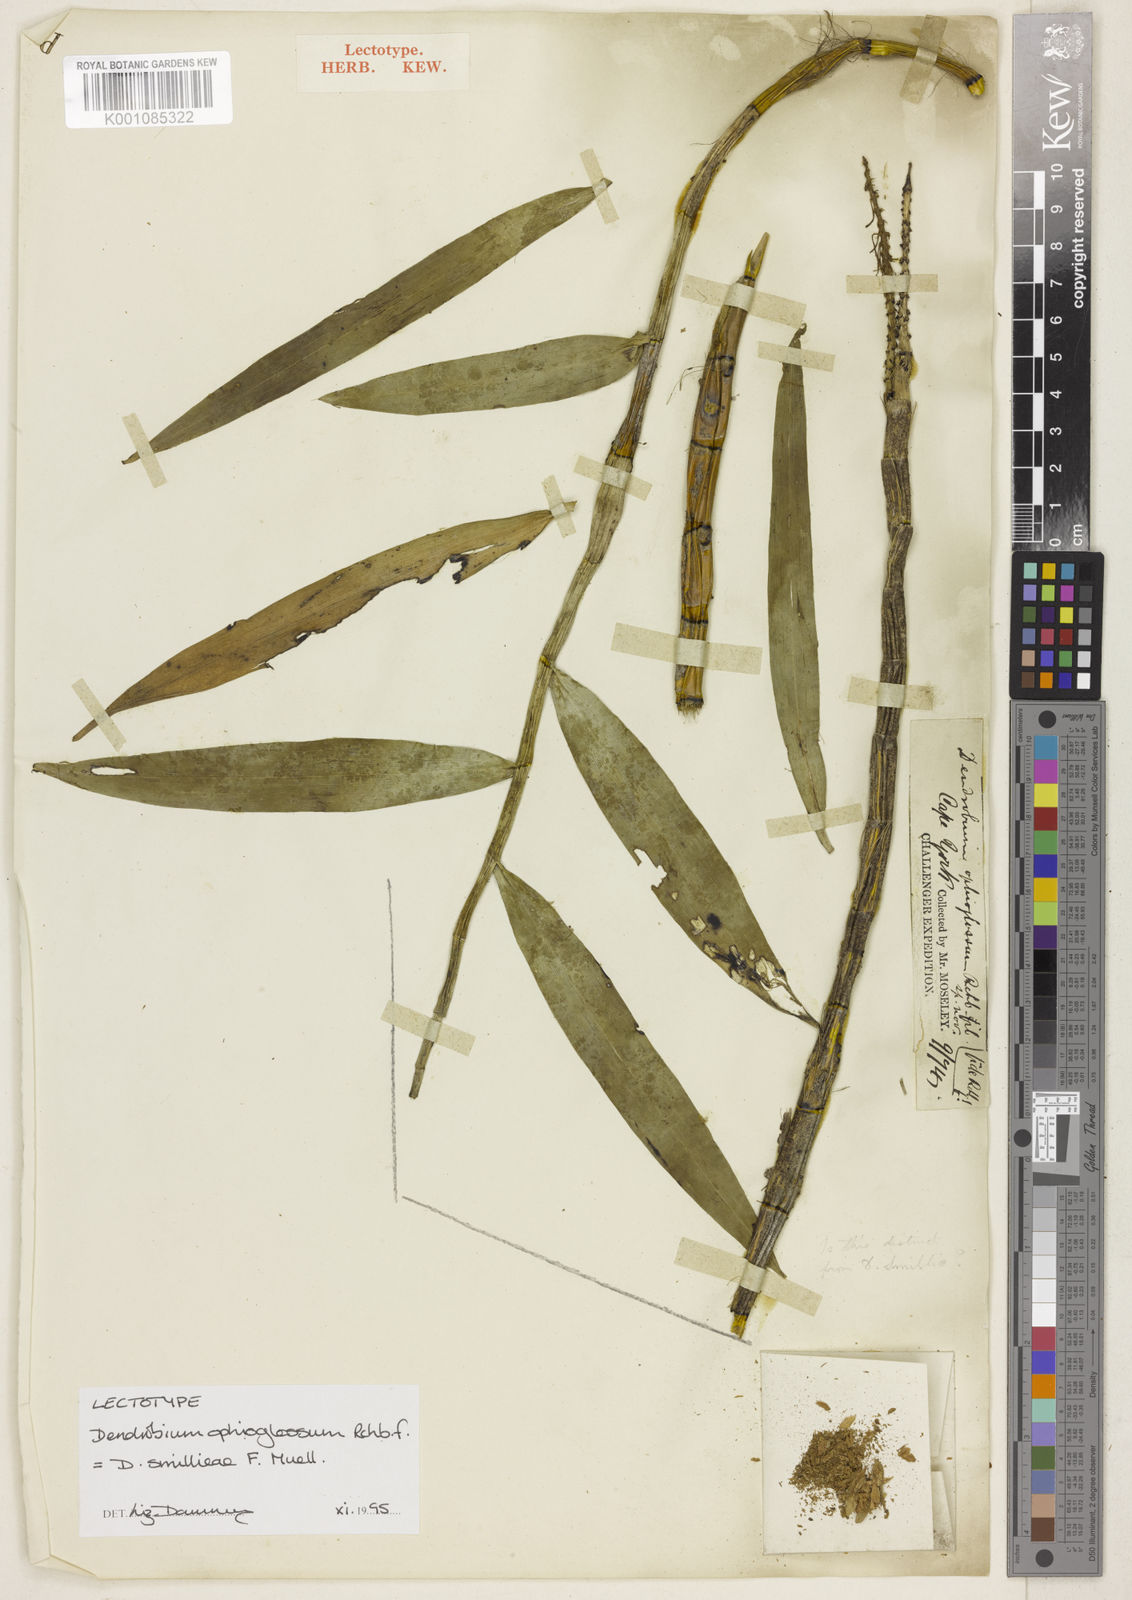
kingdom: Plantae
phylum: Tracheophyta
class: Liliopsida
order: Asparagales
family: Orchidaceae
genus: Dendrobium
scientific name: Dendrobium smillieae
